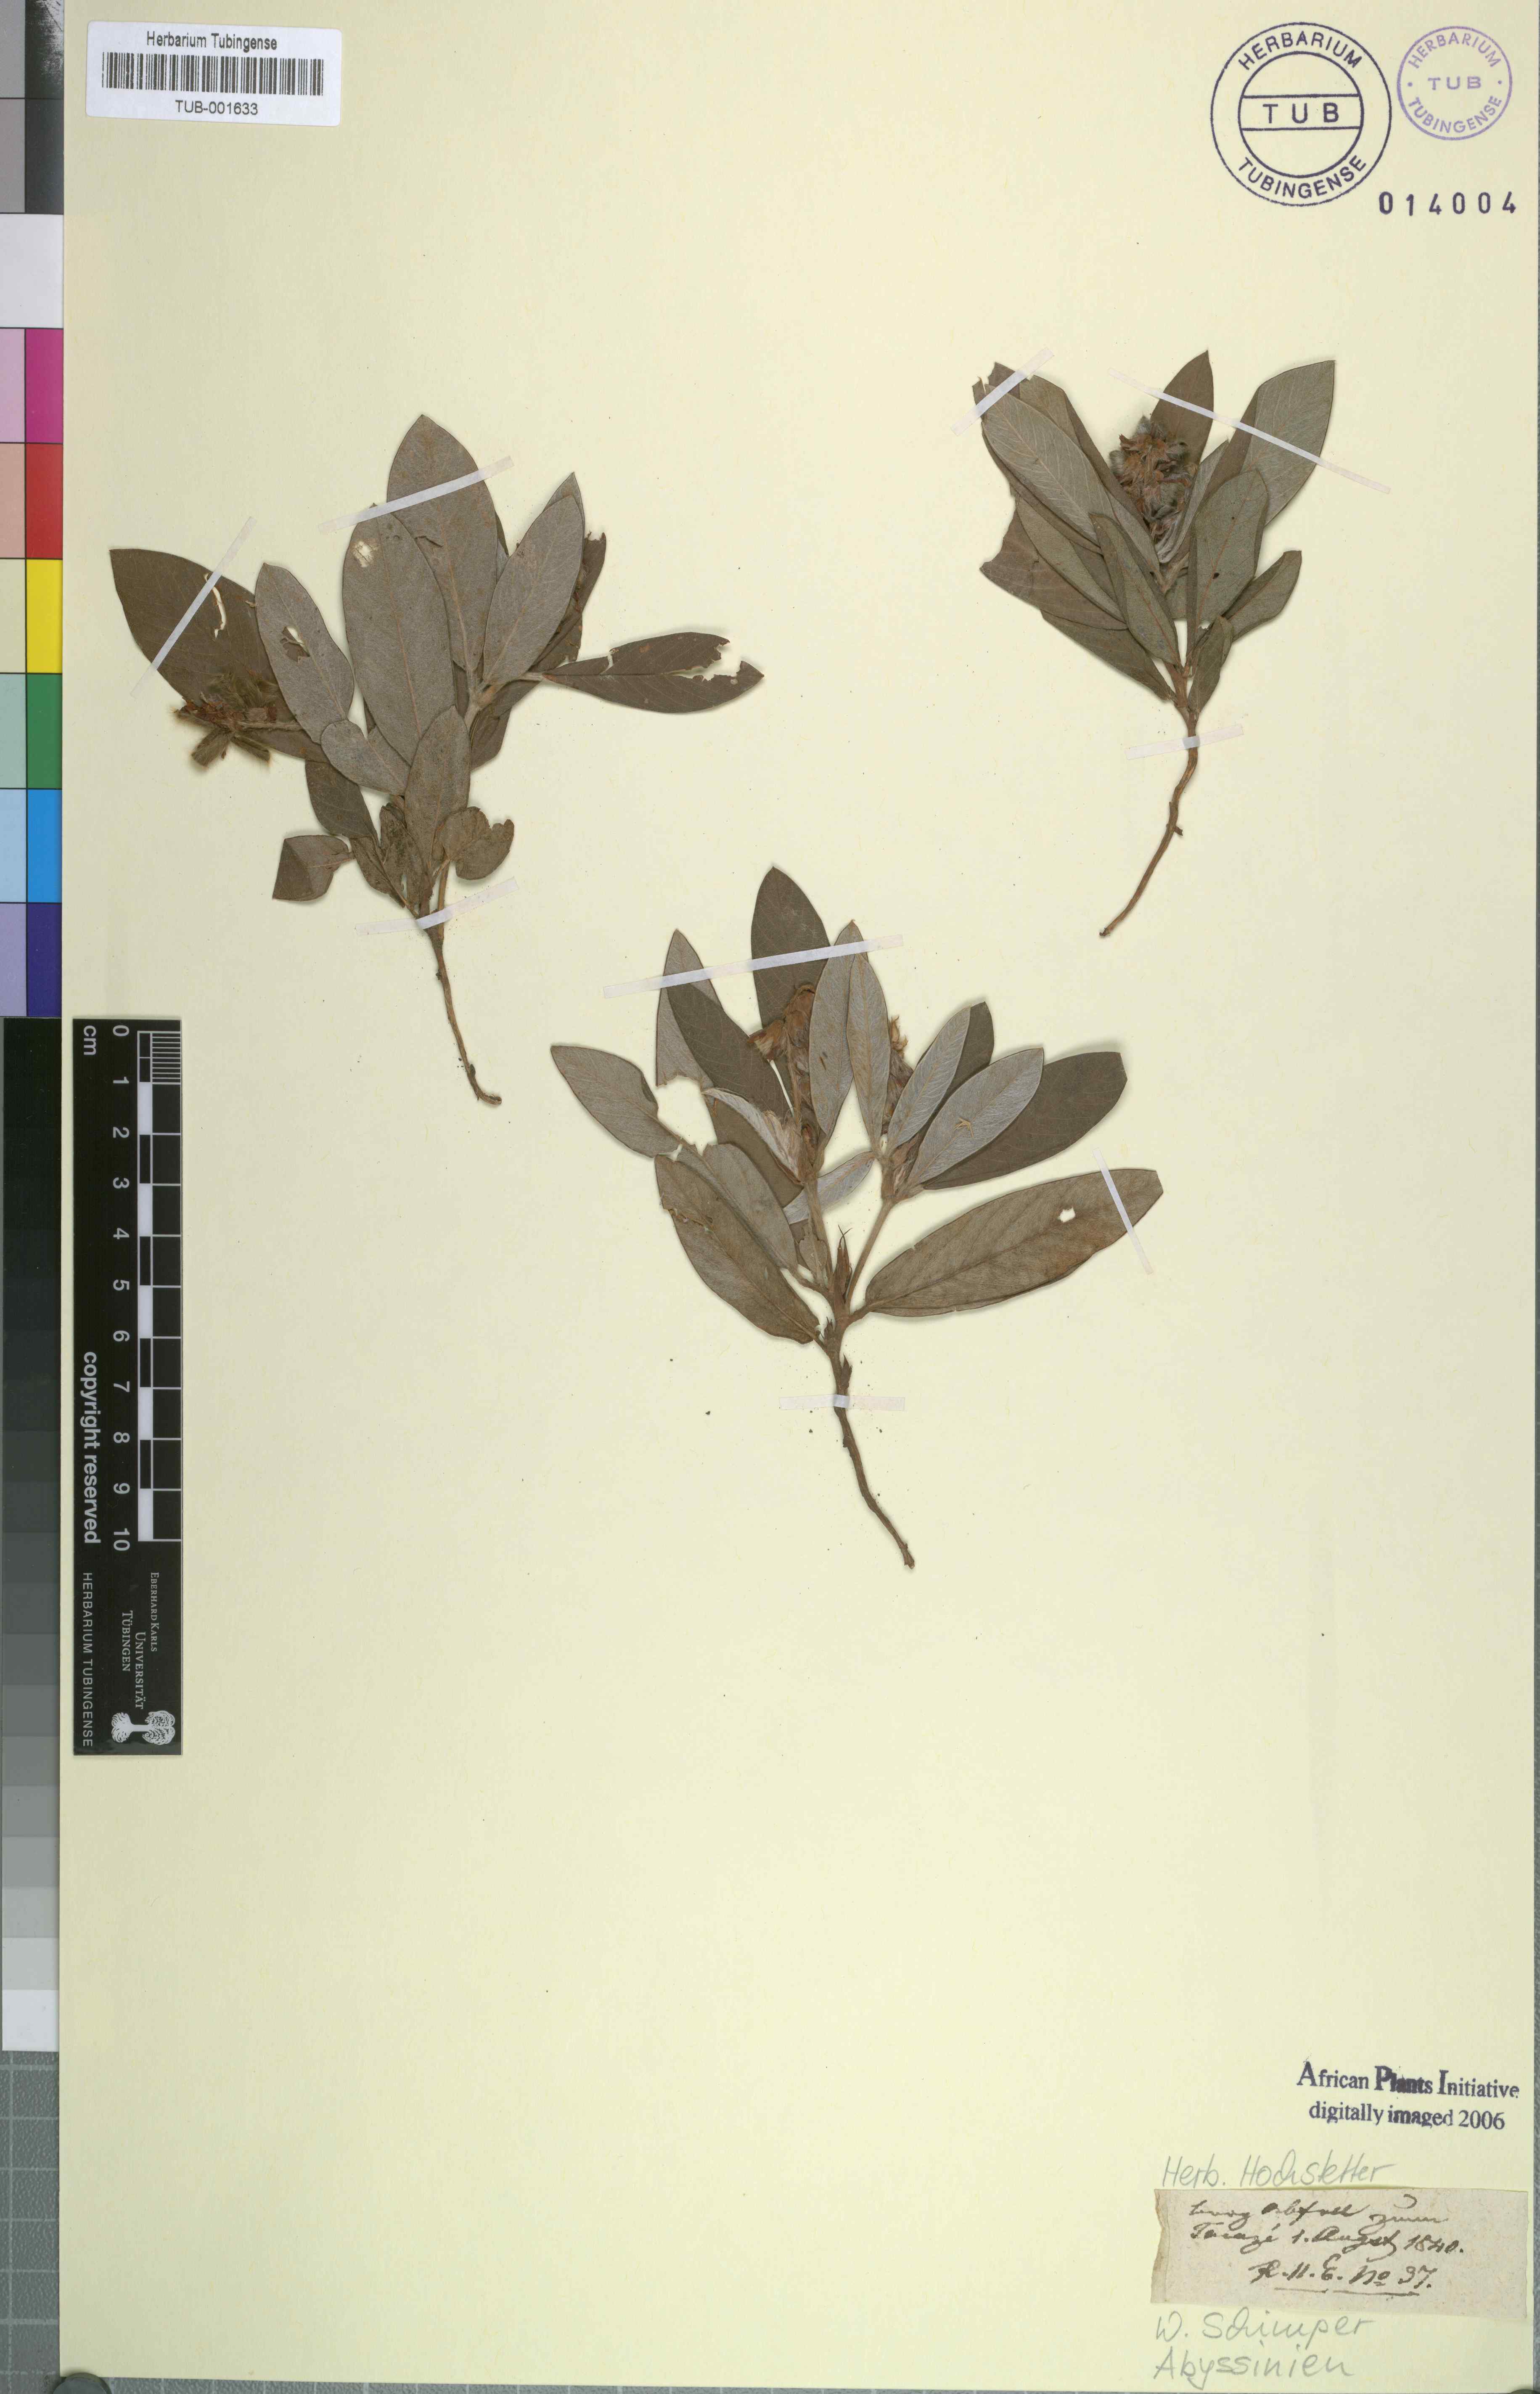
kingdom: Plantae
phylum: Tracheophyta
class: Magnoliopsida
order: Fabales
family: Fabaceae
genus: Eriosema
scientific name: Eriosema tuberosum
